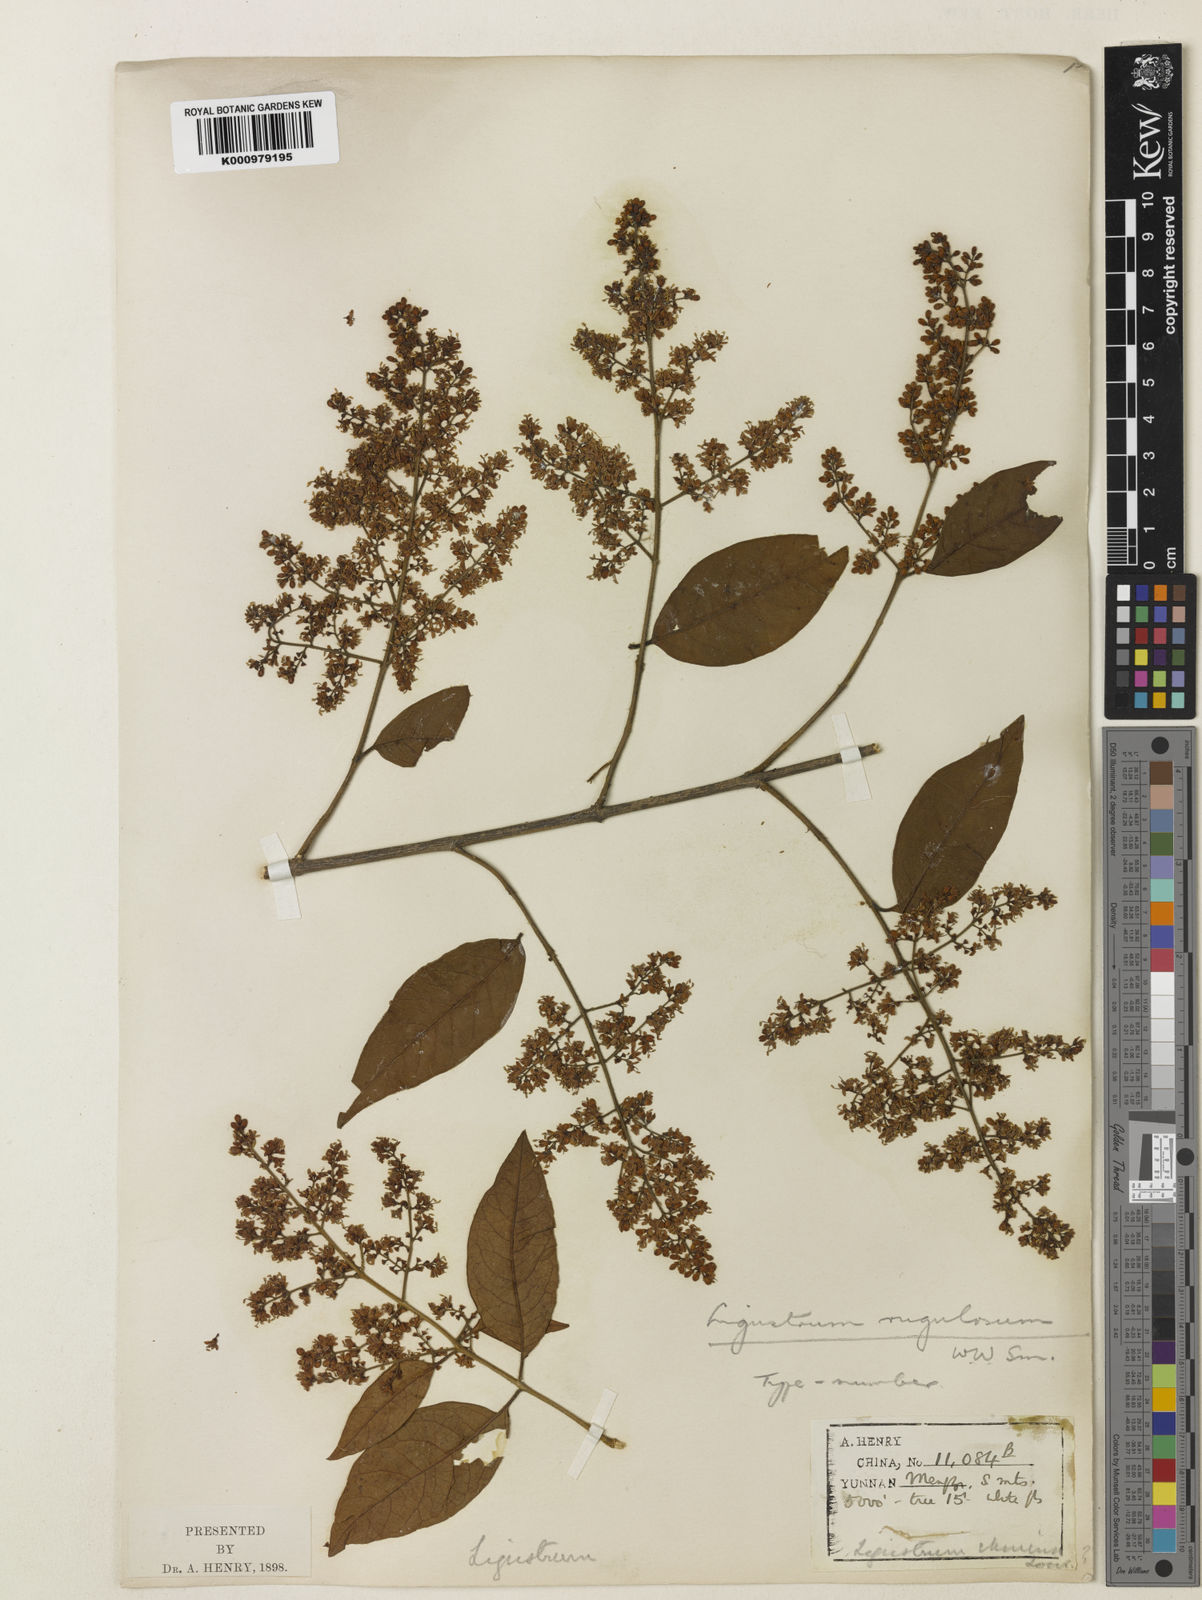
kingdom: Plantae
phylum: Tracheophyta
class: Magnoliopsida
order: Lamiales
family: Oleaceae
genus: Ligustrum
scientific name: Ligustrum sinense
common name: Chinese privet
